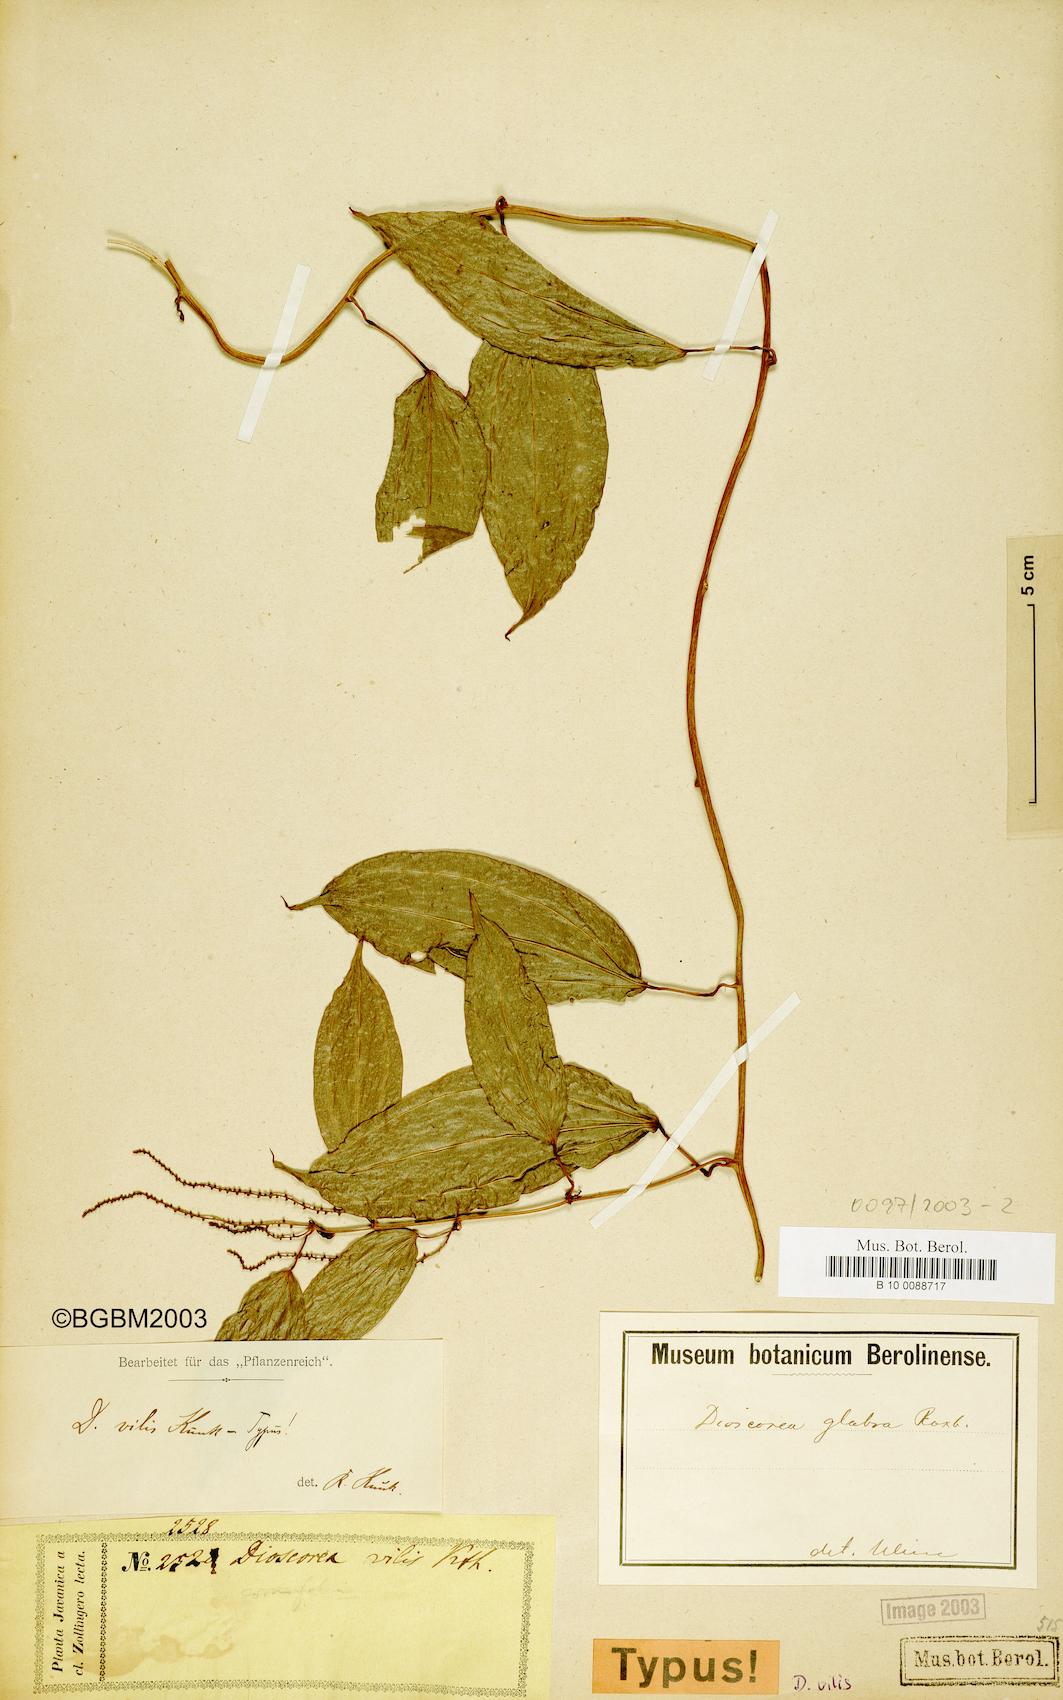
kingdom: Plantae
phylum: Tracheophyta
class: Liliopsida
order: Dioscoreales
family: Dioscoreaceae
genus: Dioscorea
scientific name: Dioscorea vilis
